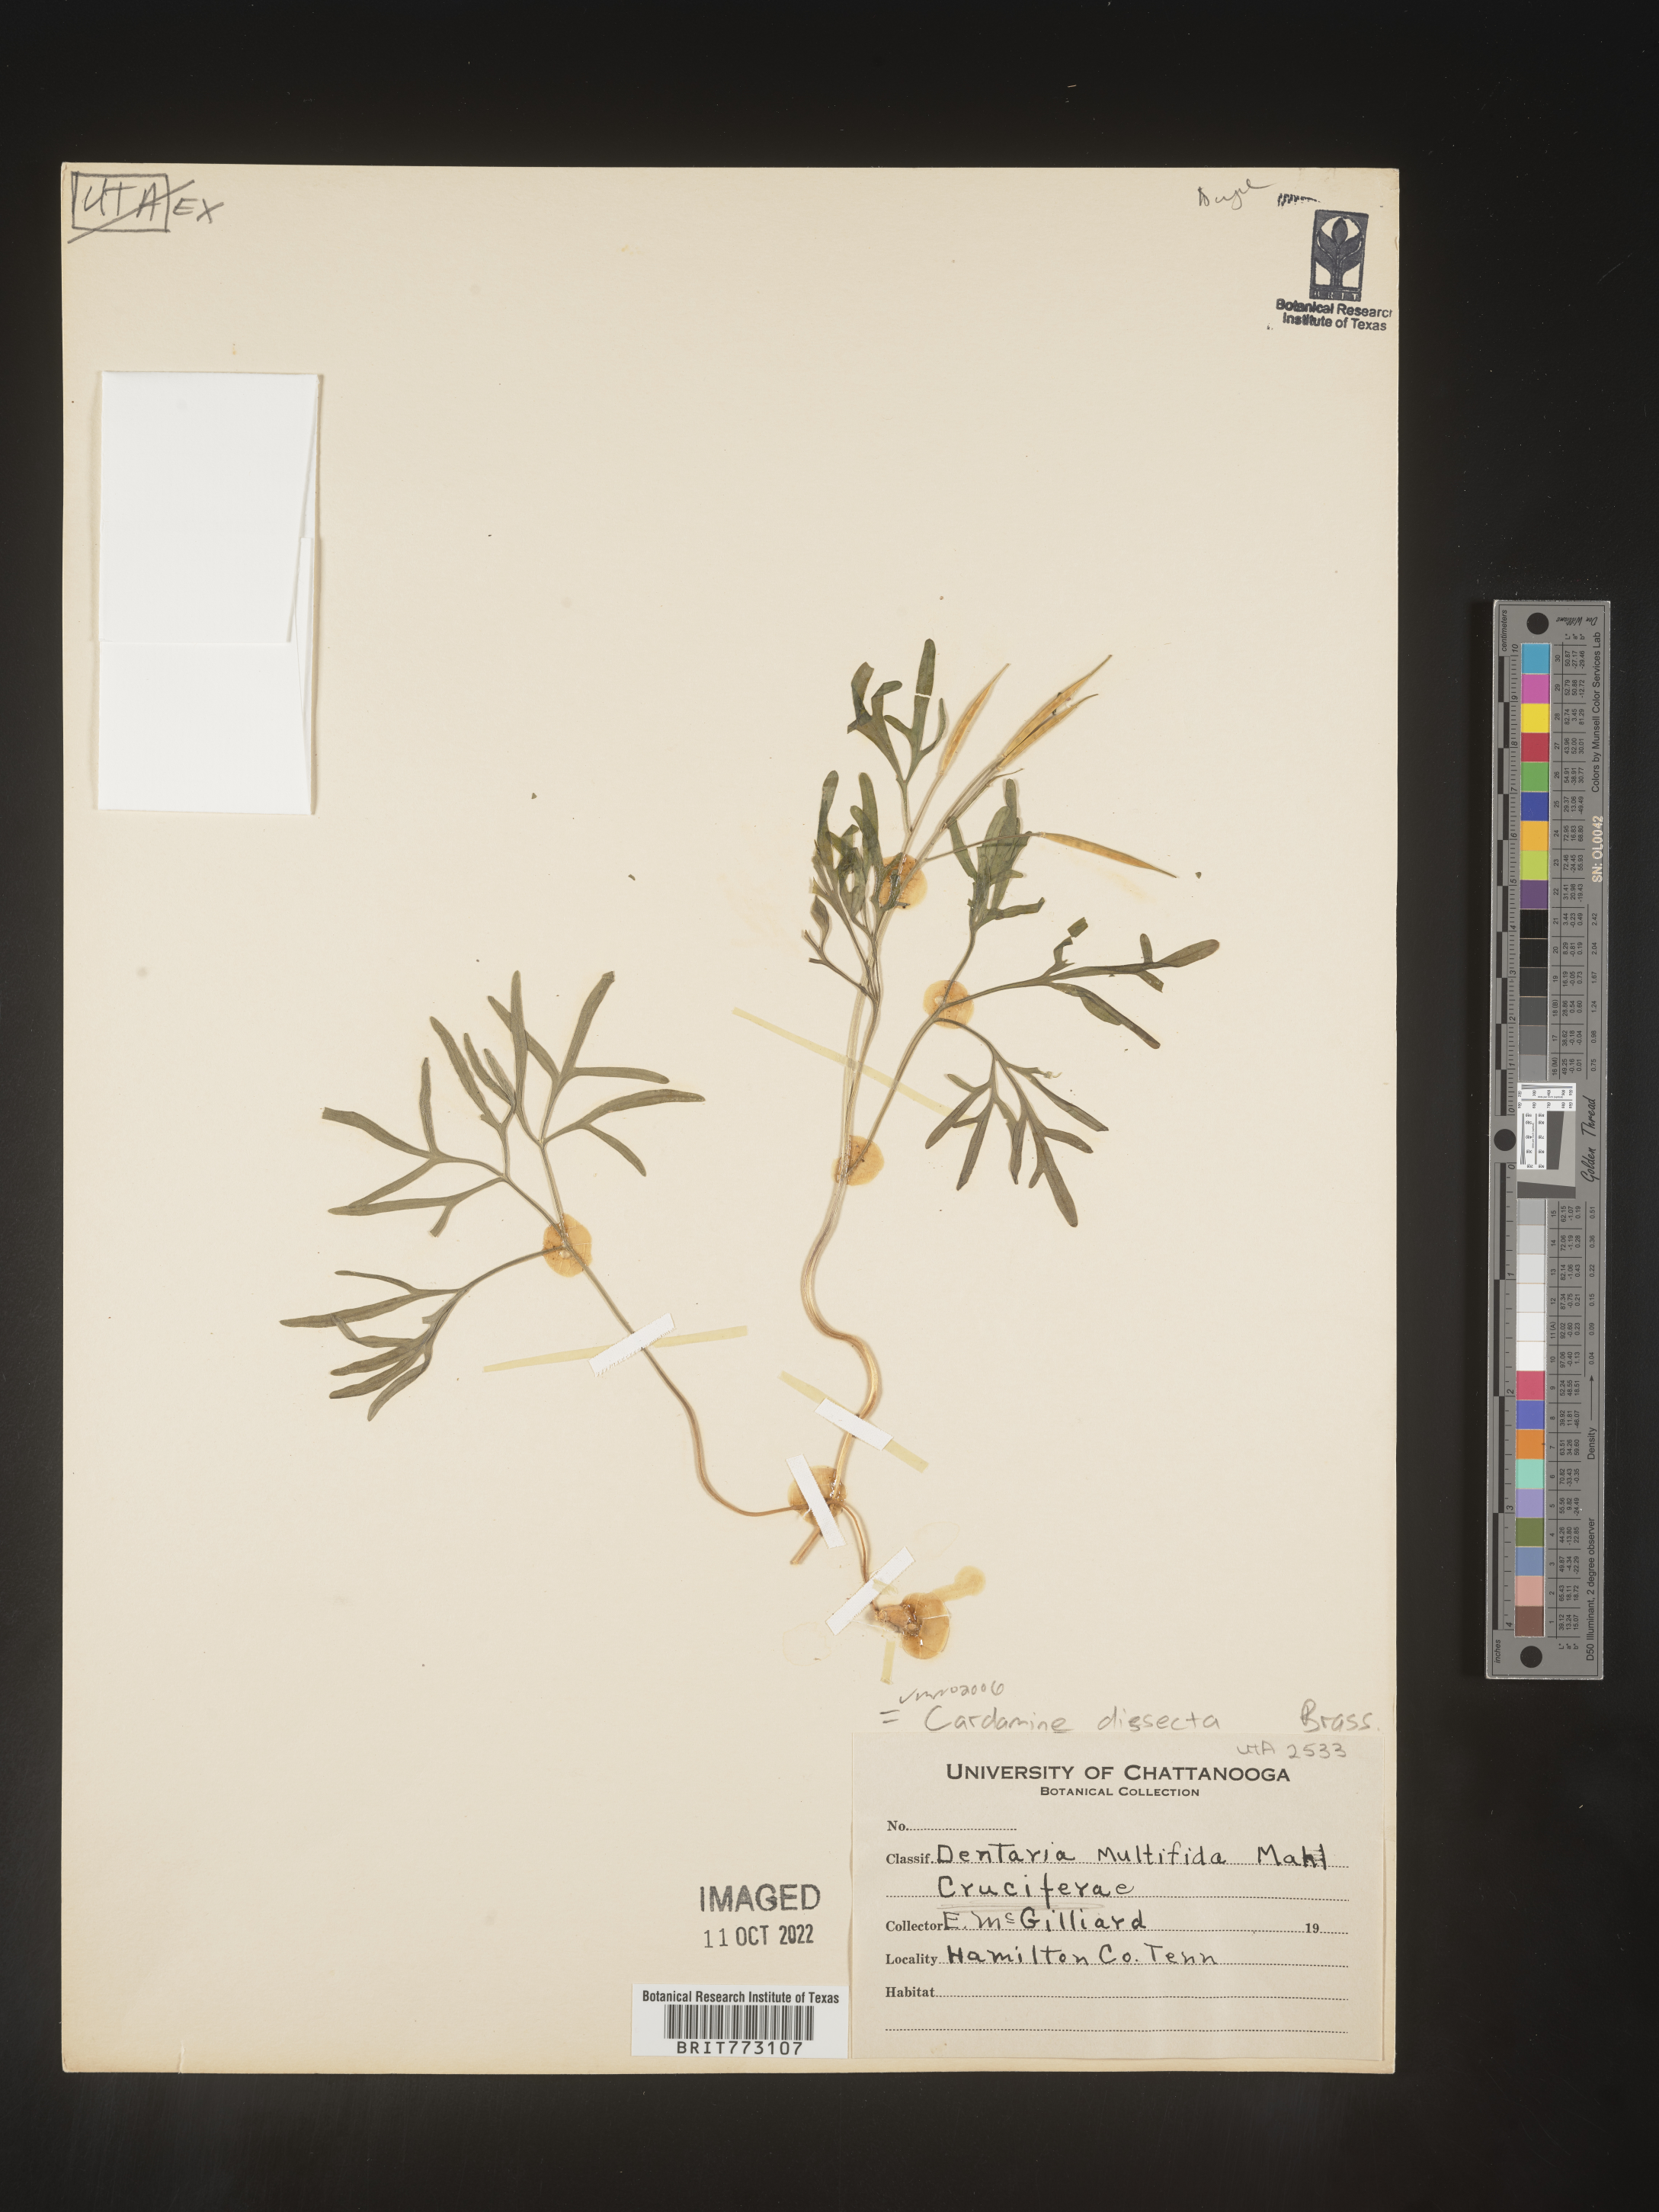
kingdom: Plantae
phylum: Tracheophyta
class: Magnoliopsida
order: Brassicales
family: Brassicaceae
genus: Cardamine
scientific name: Cardamine
